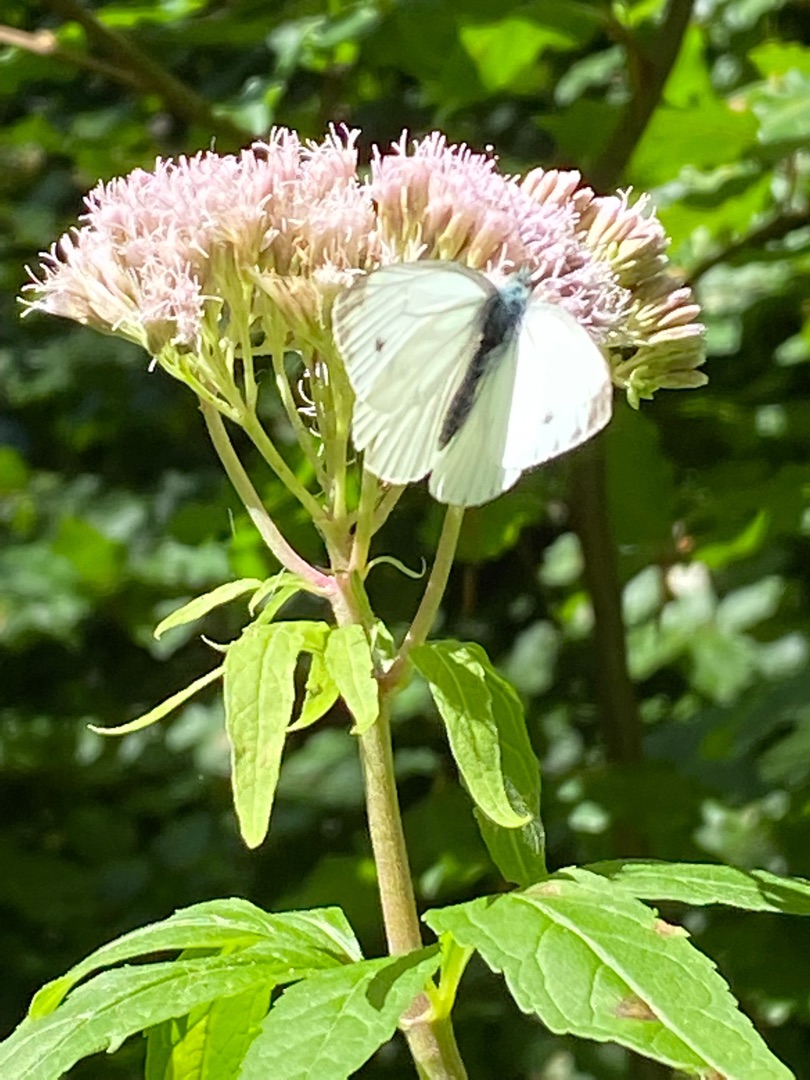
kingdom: Animalia
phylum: Arthropoda
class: Insecta
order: Lepidoptera
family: Pieridae
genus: Pieris
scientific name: Pieris napi
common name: Grønåret kålsommerfugl
